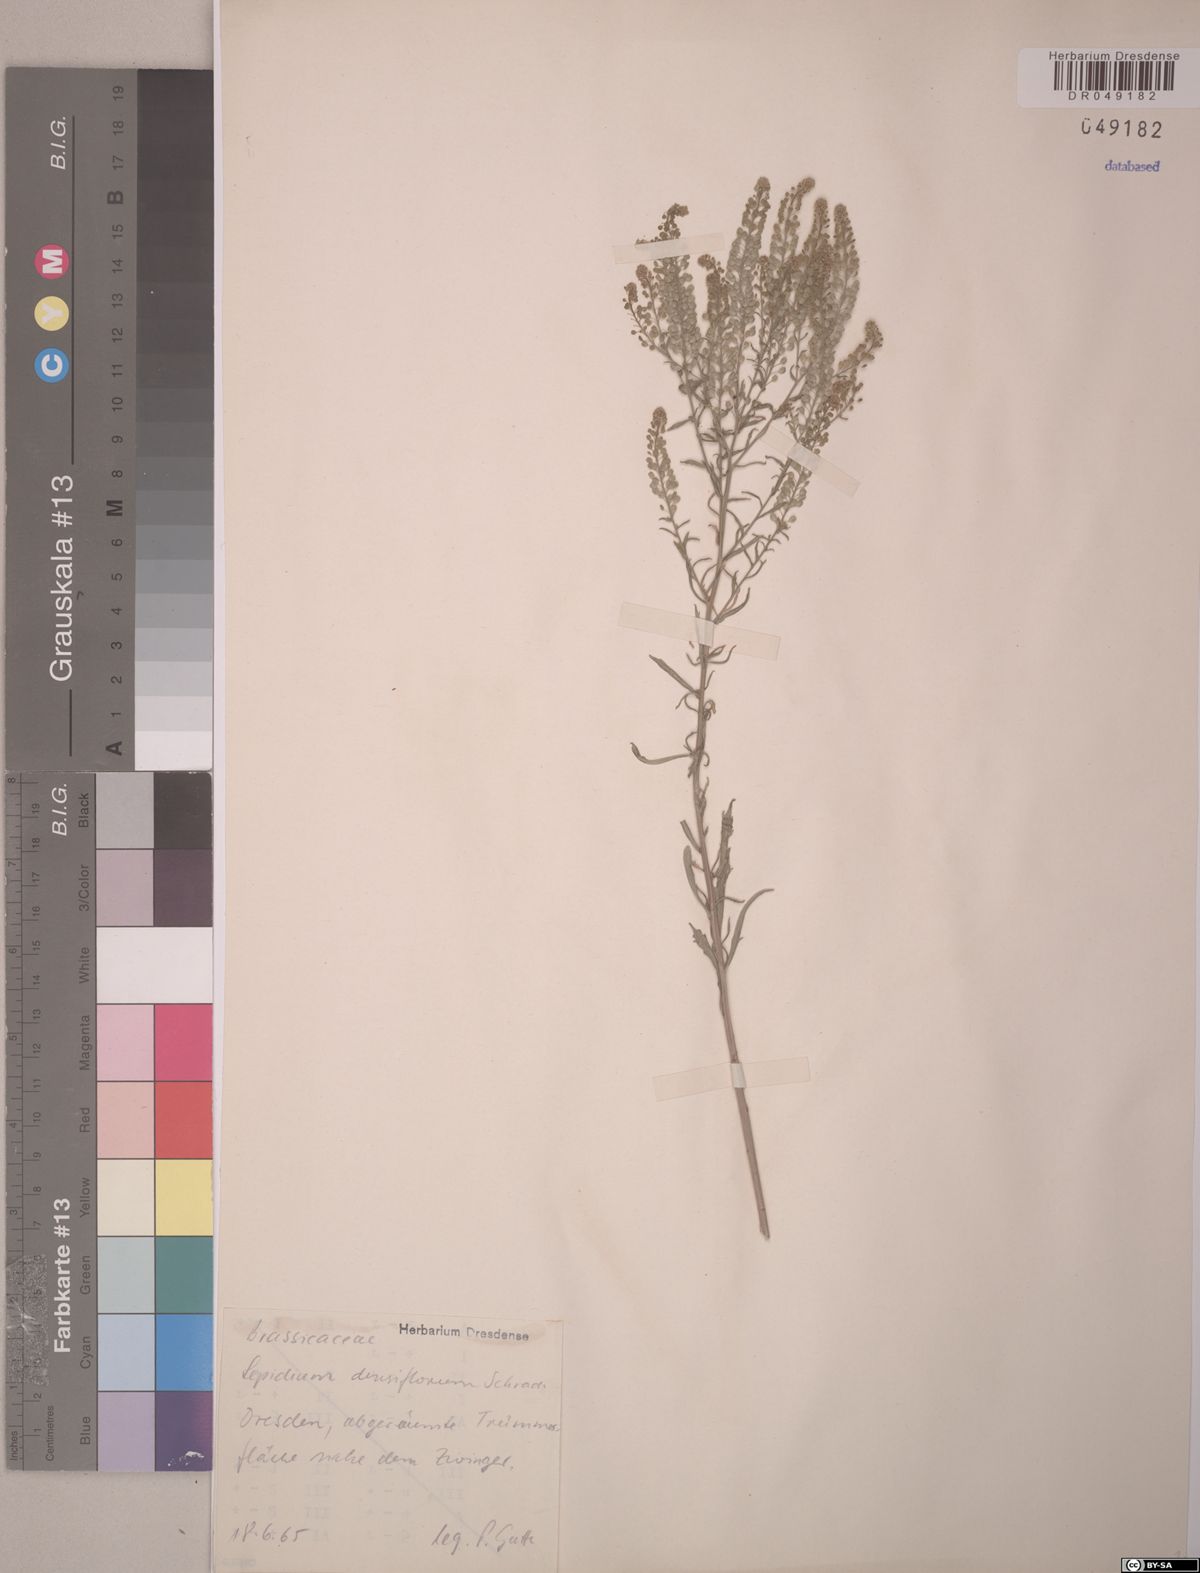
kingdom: Plantae
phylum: Tracheophyta
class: Magnoliopsida
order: Brassicales
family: Brassicaceae
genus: Lepidium
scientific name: Lepidium densiflorum
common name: Miner's pepperwort
